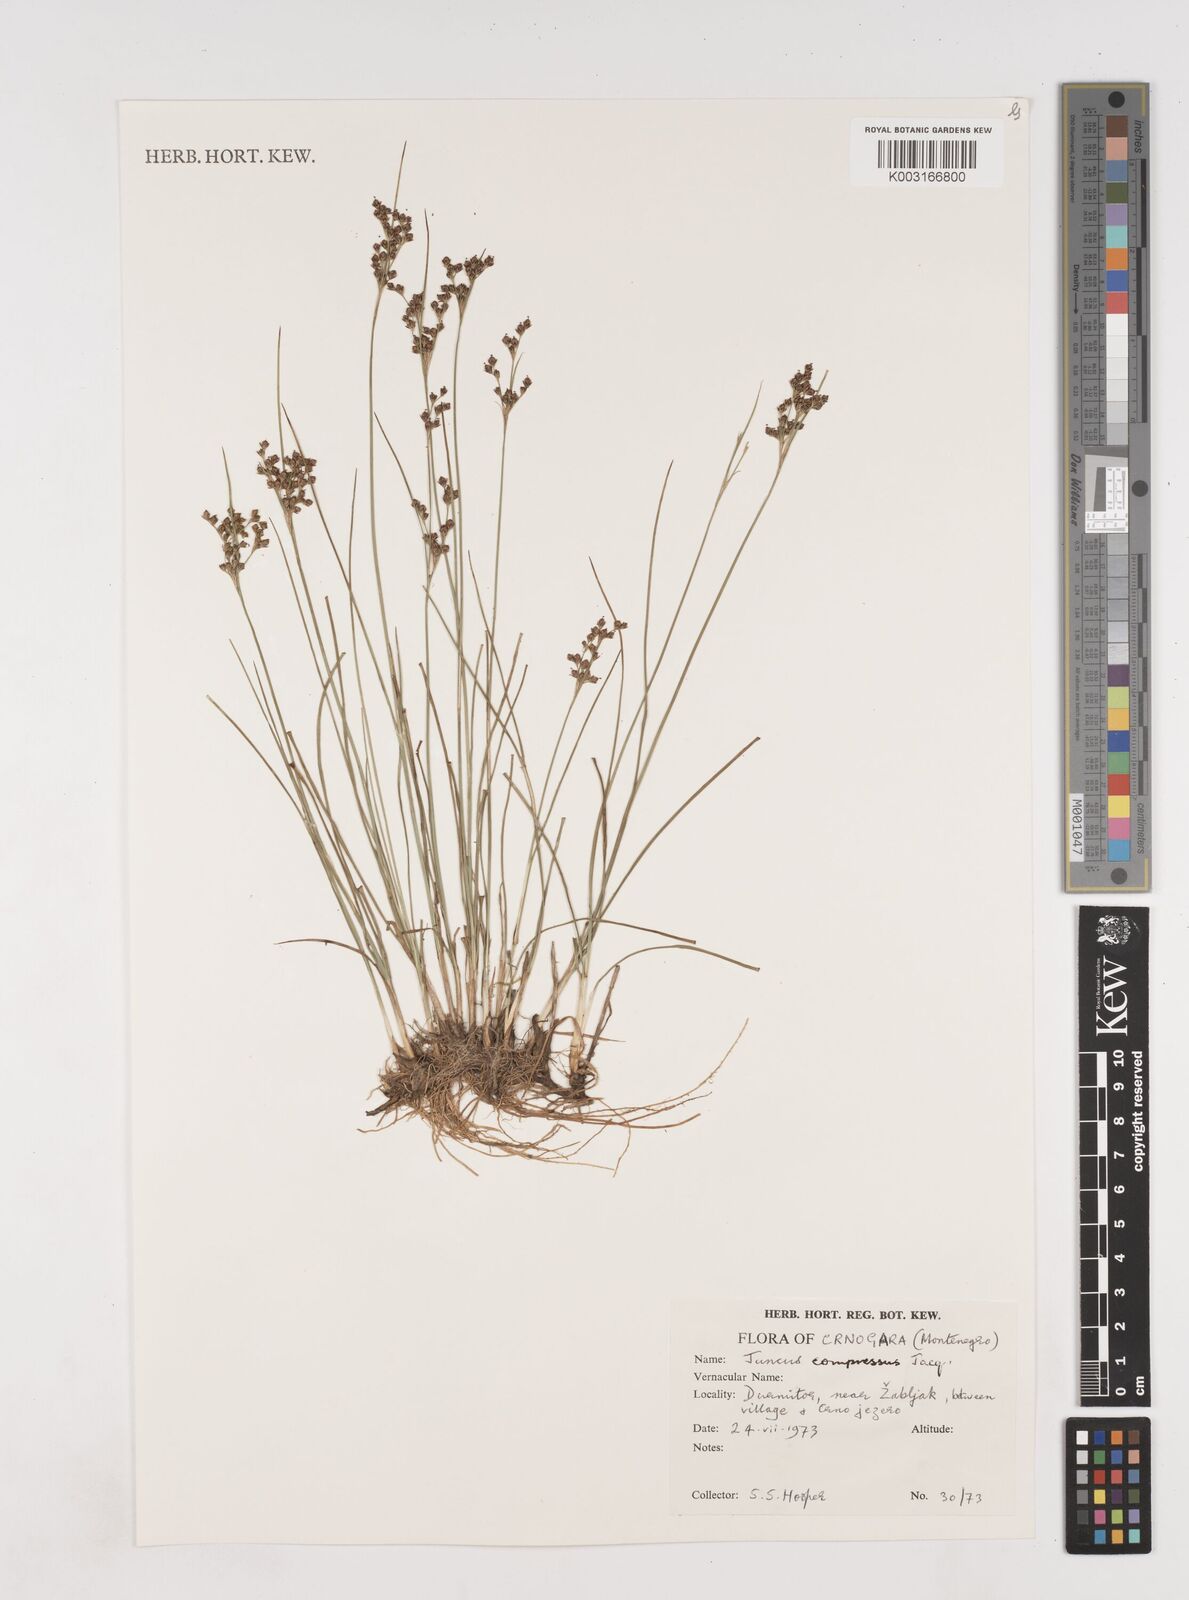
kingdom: Plantae
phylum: Tracheophyta
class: Liliopsida
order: Poales
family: Juncaceae
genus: Juncus
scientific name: Juncus compressus
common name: Round-fruited rush
